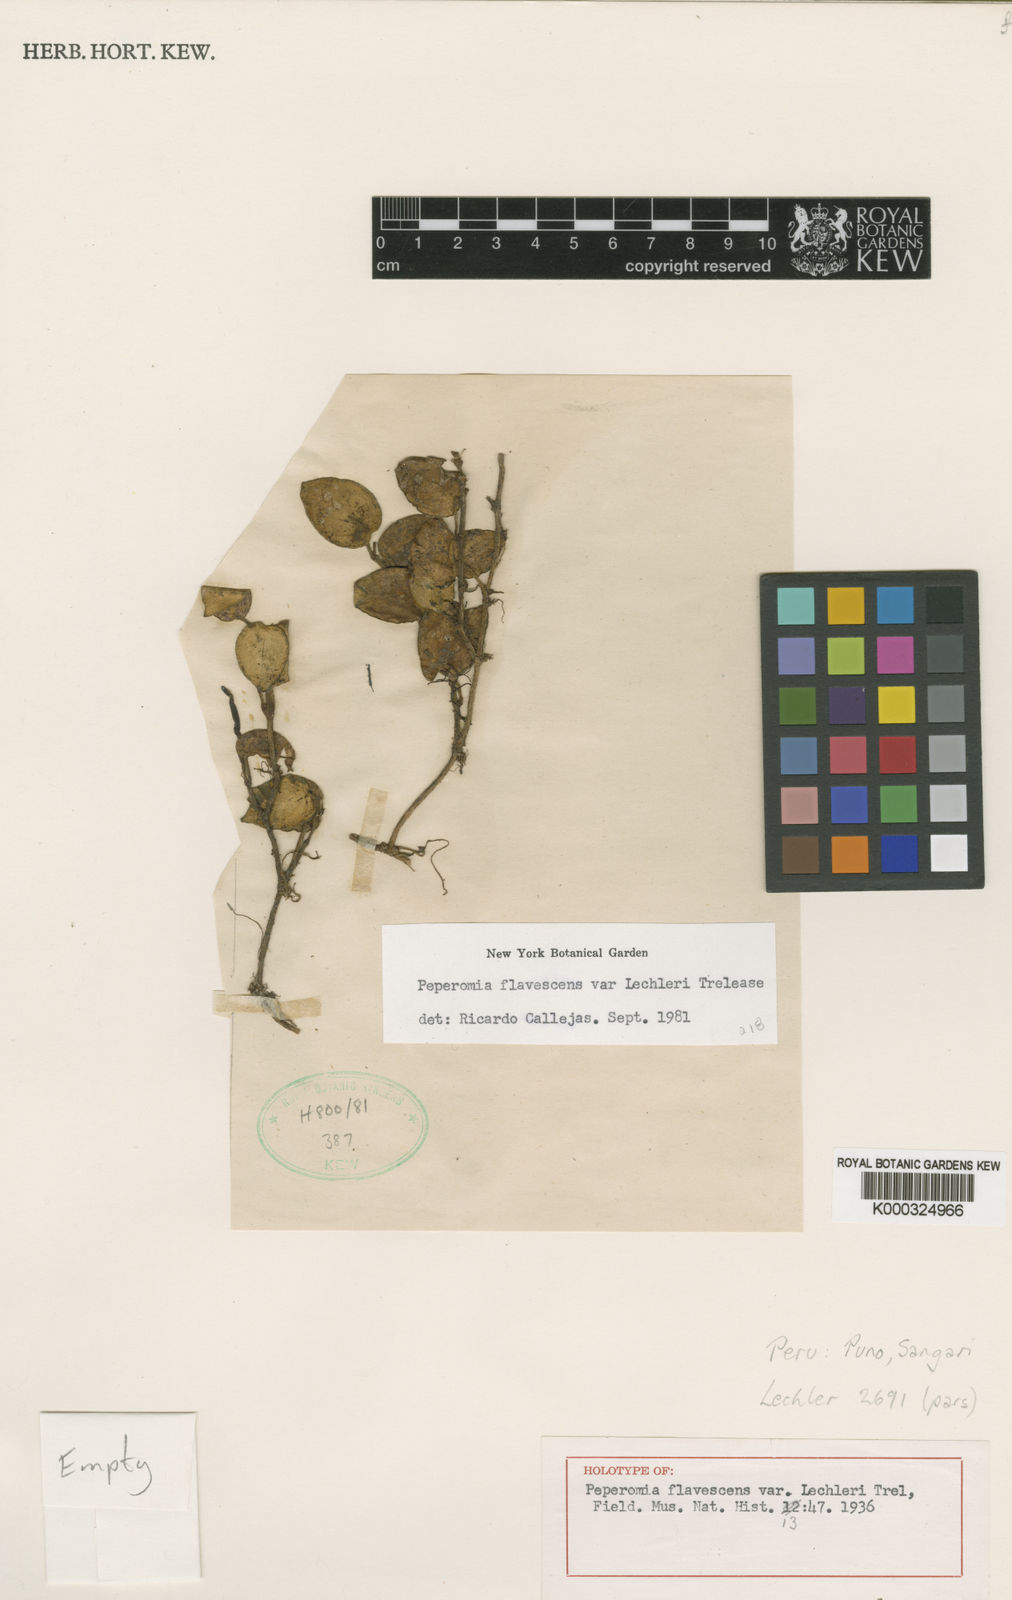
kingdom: Plantae
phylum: Tracheophyta
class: Magnoliopsida
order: Piperales
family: Piperaceae
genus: Peperomia
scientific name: Peperomia flavescens
